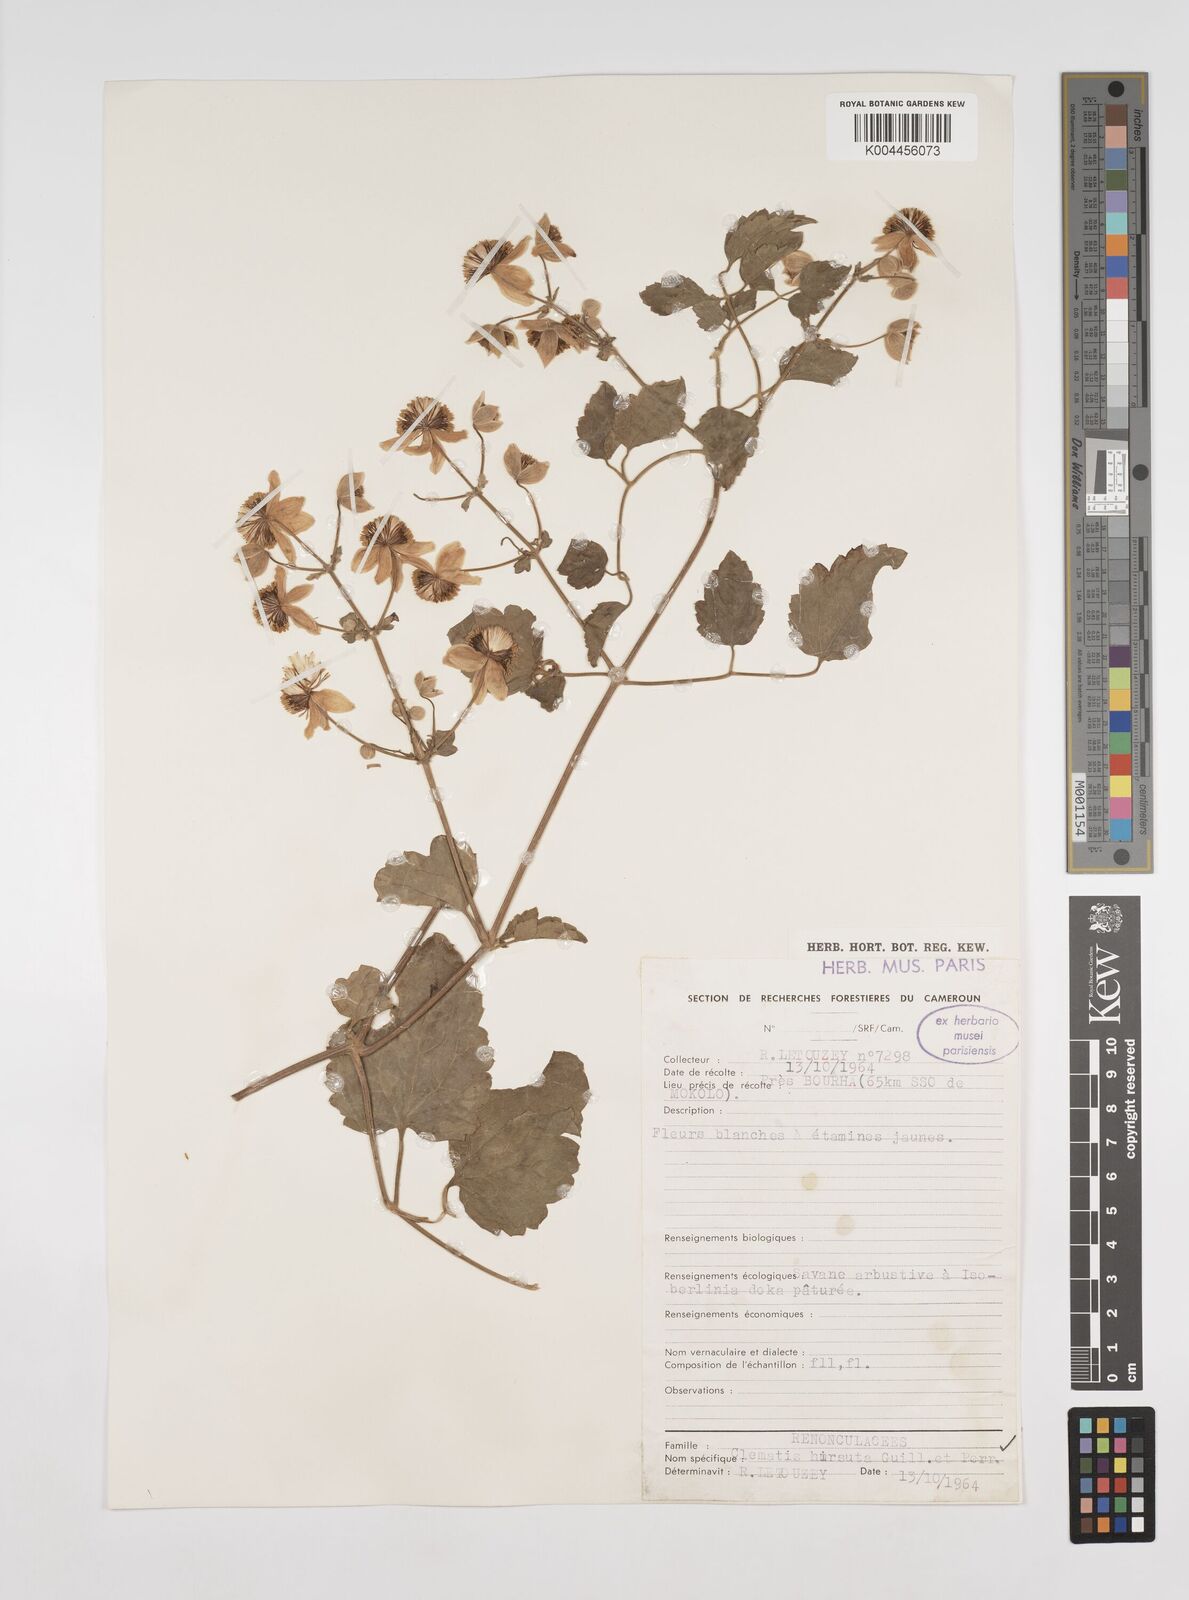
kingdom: Plantae
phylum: Tracheophyta
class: Magnoliopsida
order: Ranunculales
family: Ranunculaceae
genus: Clematis
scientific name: Clematis hirsuta
